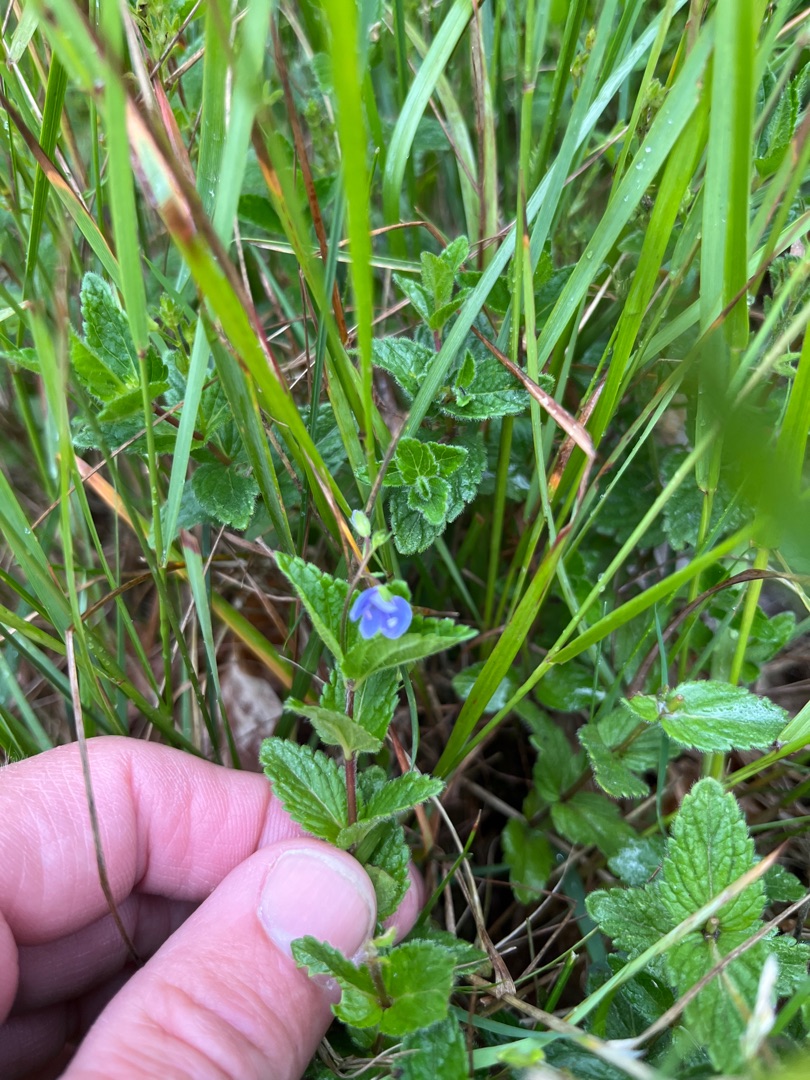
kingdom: Plantae
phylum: Tracheophyta
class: Magnoliopsida
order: Lamiales
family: Plantaginaceae
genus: Veronica
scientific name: Veronica chamaedrys
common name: Tveskægget ærenpris
